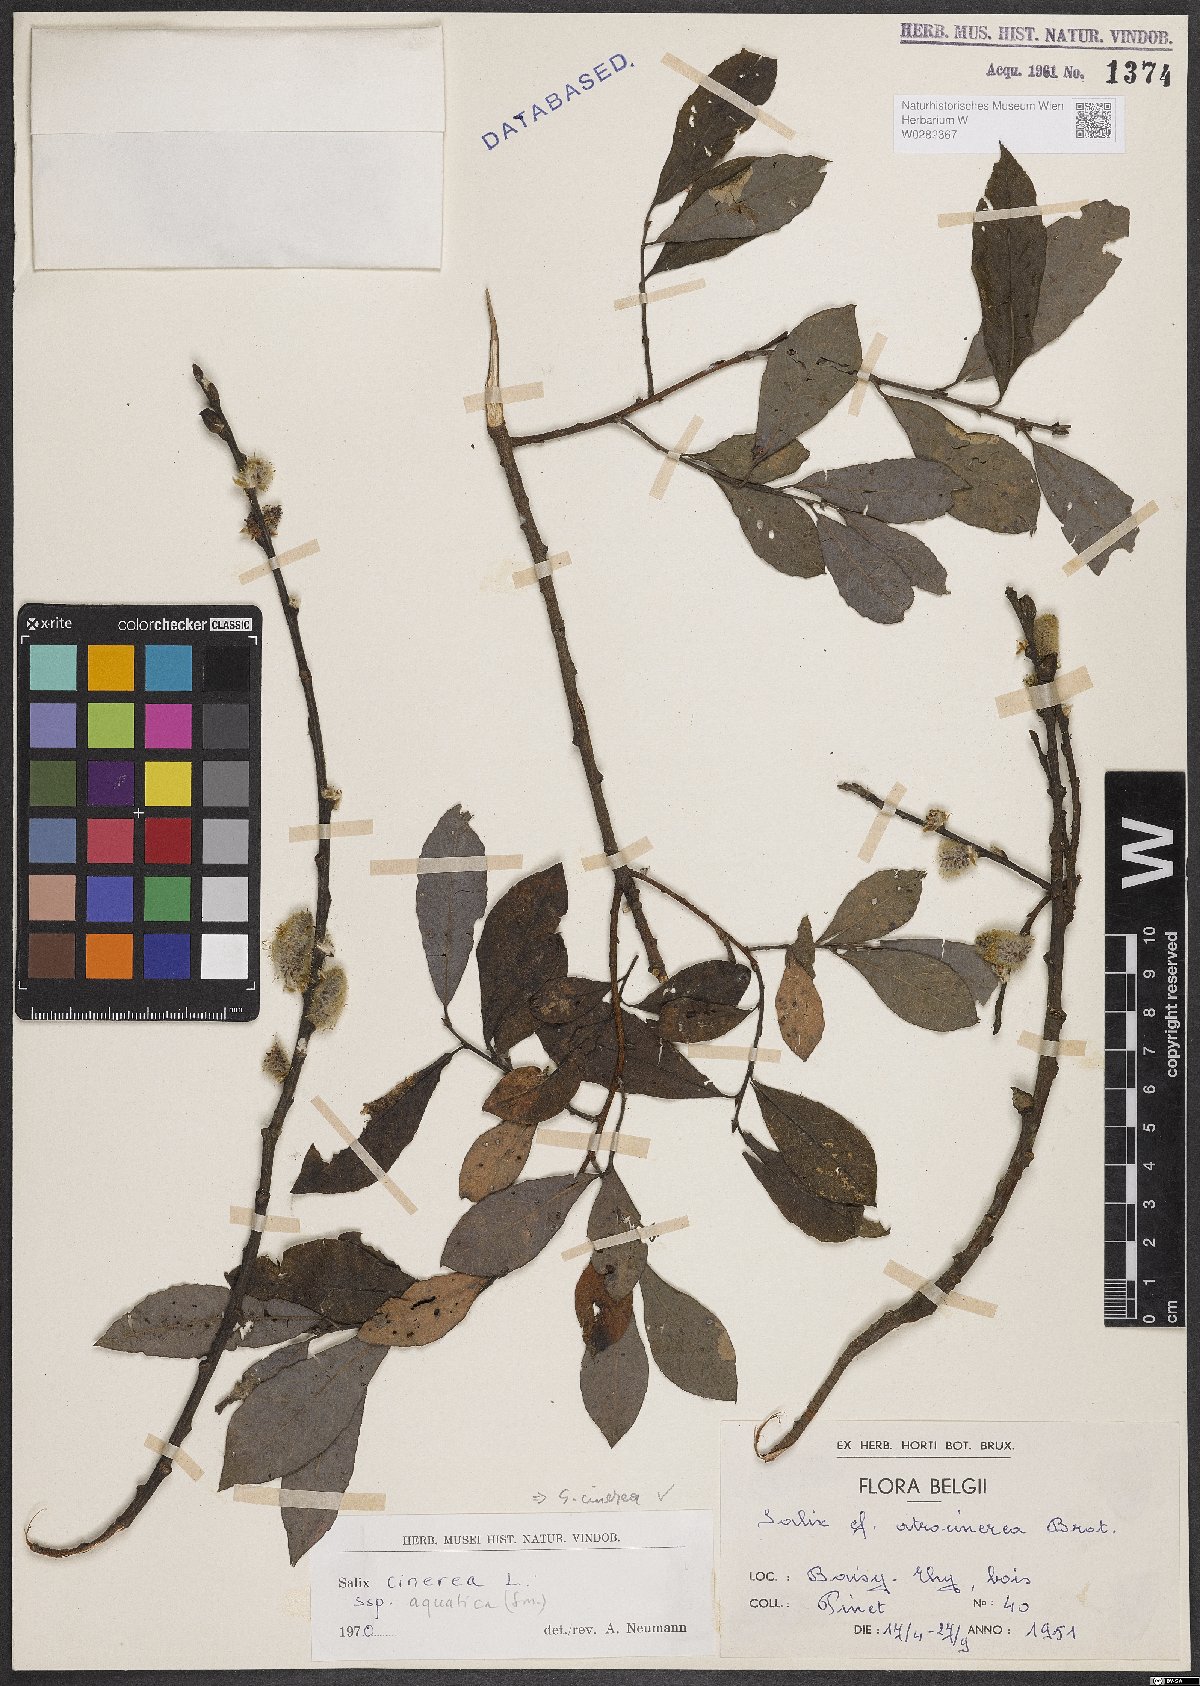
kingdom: Plantae
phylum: Tracheophyta
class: Magnoliopsida
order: Malpighiales
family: Salicaceae
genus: Salix
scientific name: Salix cinerea
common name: Common sallow
